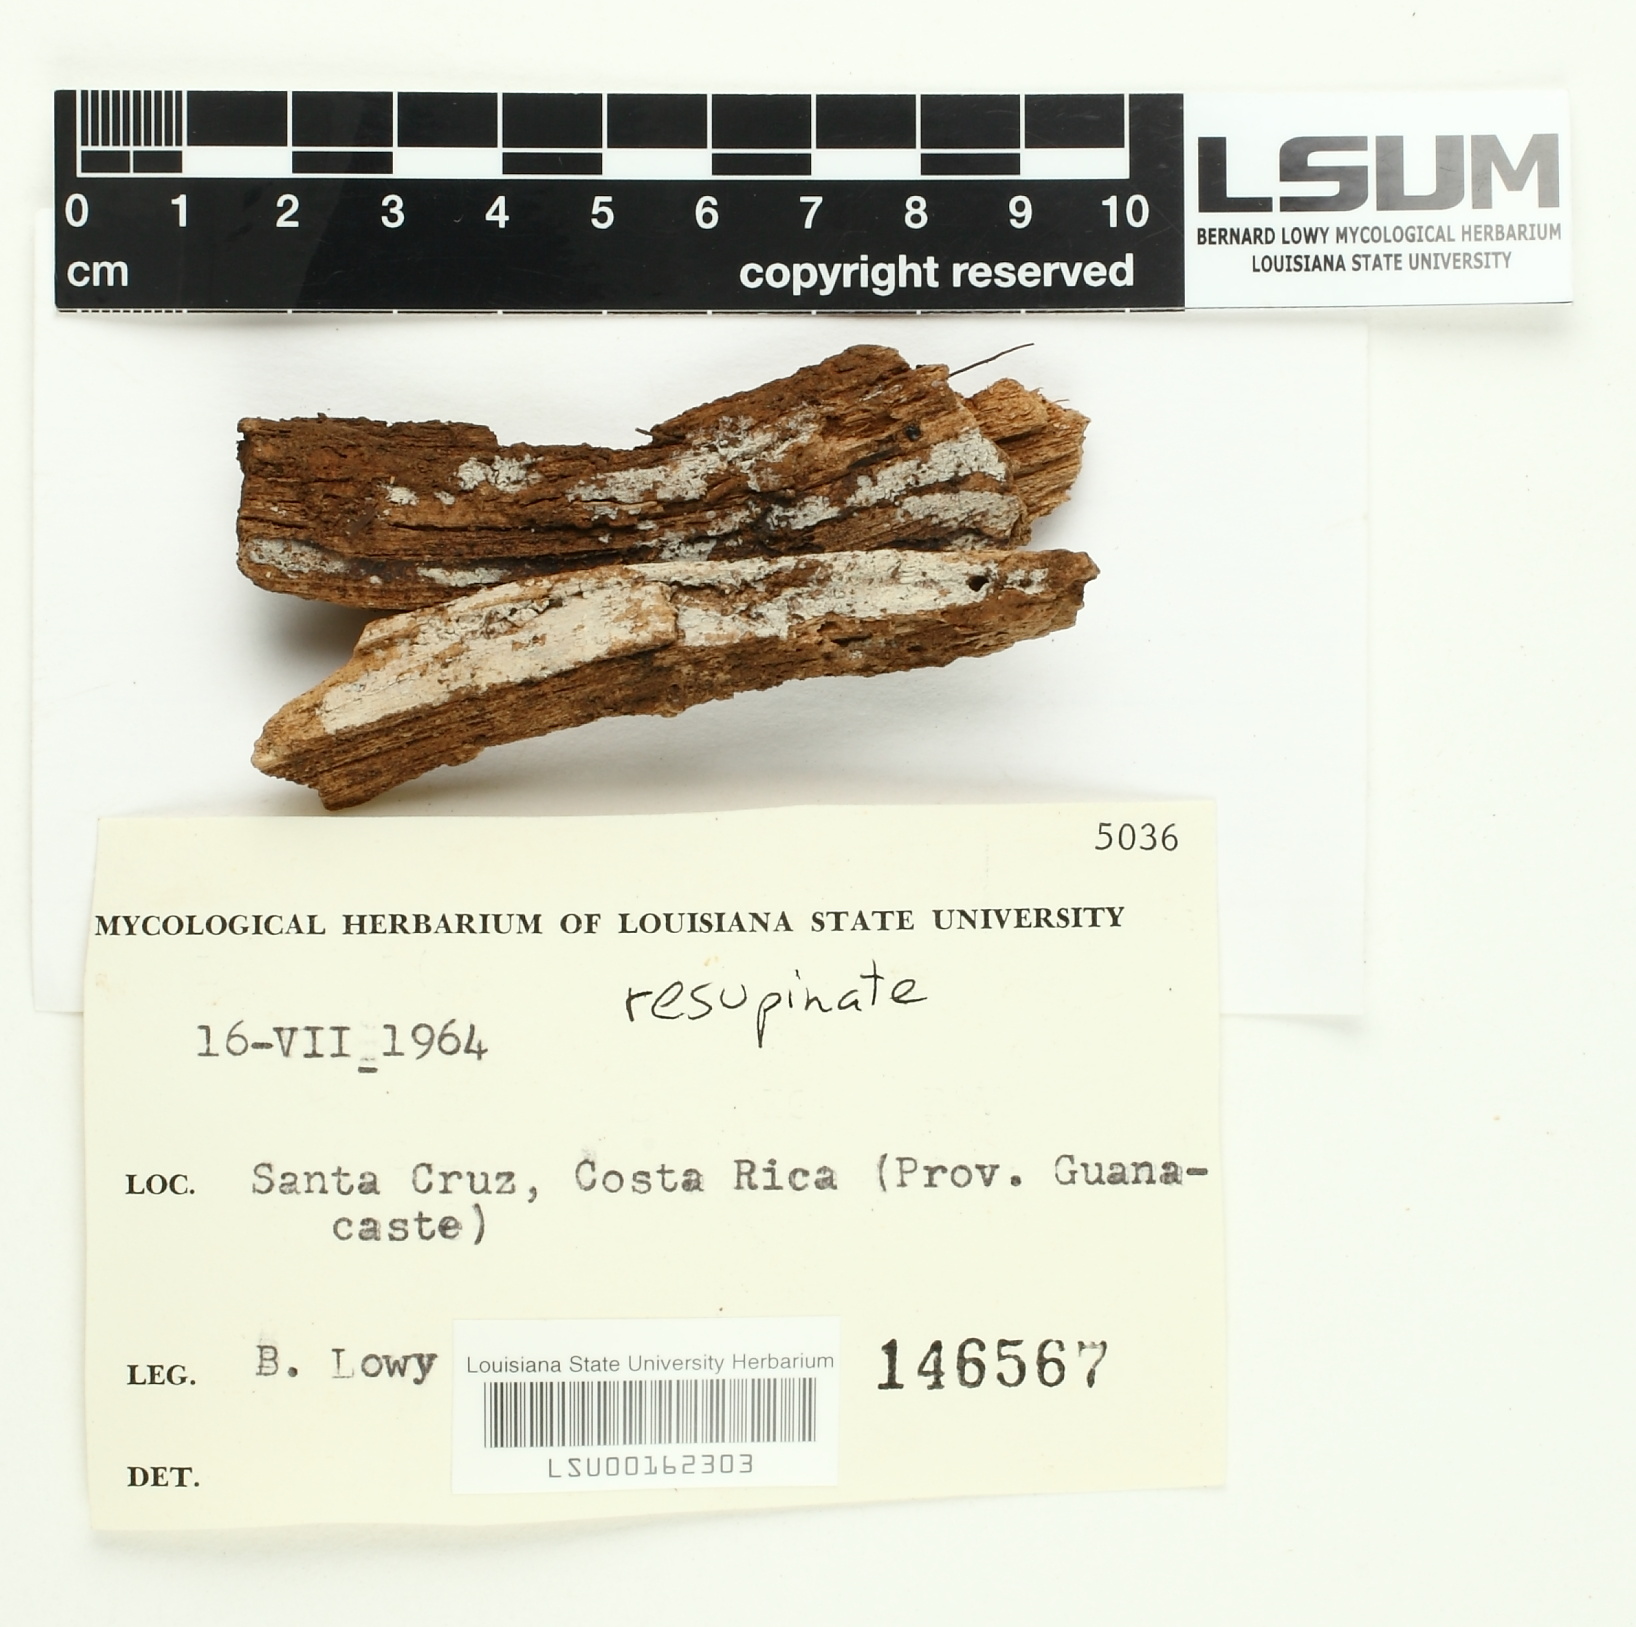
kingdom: Fungi
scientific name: Fungi
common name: Fungi
